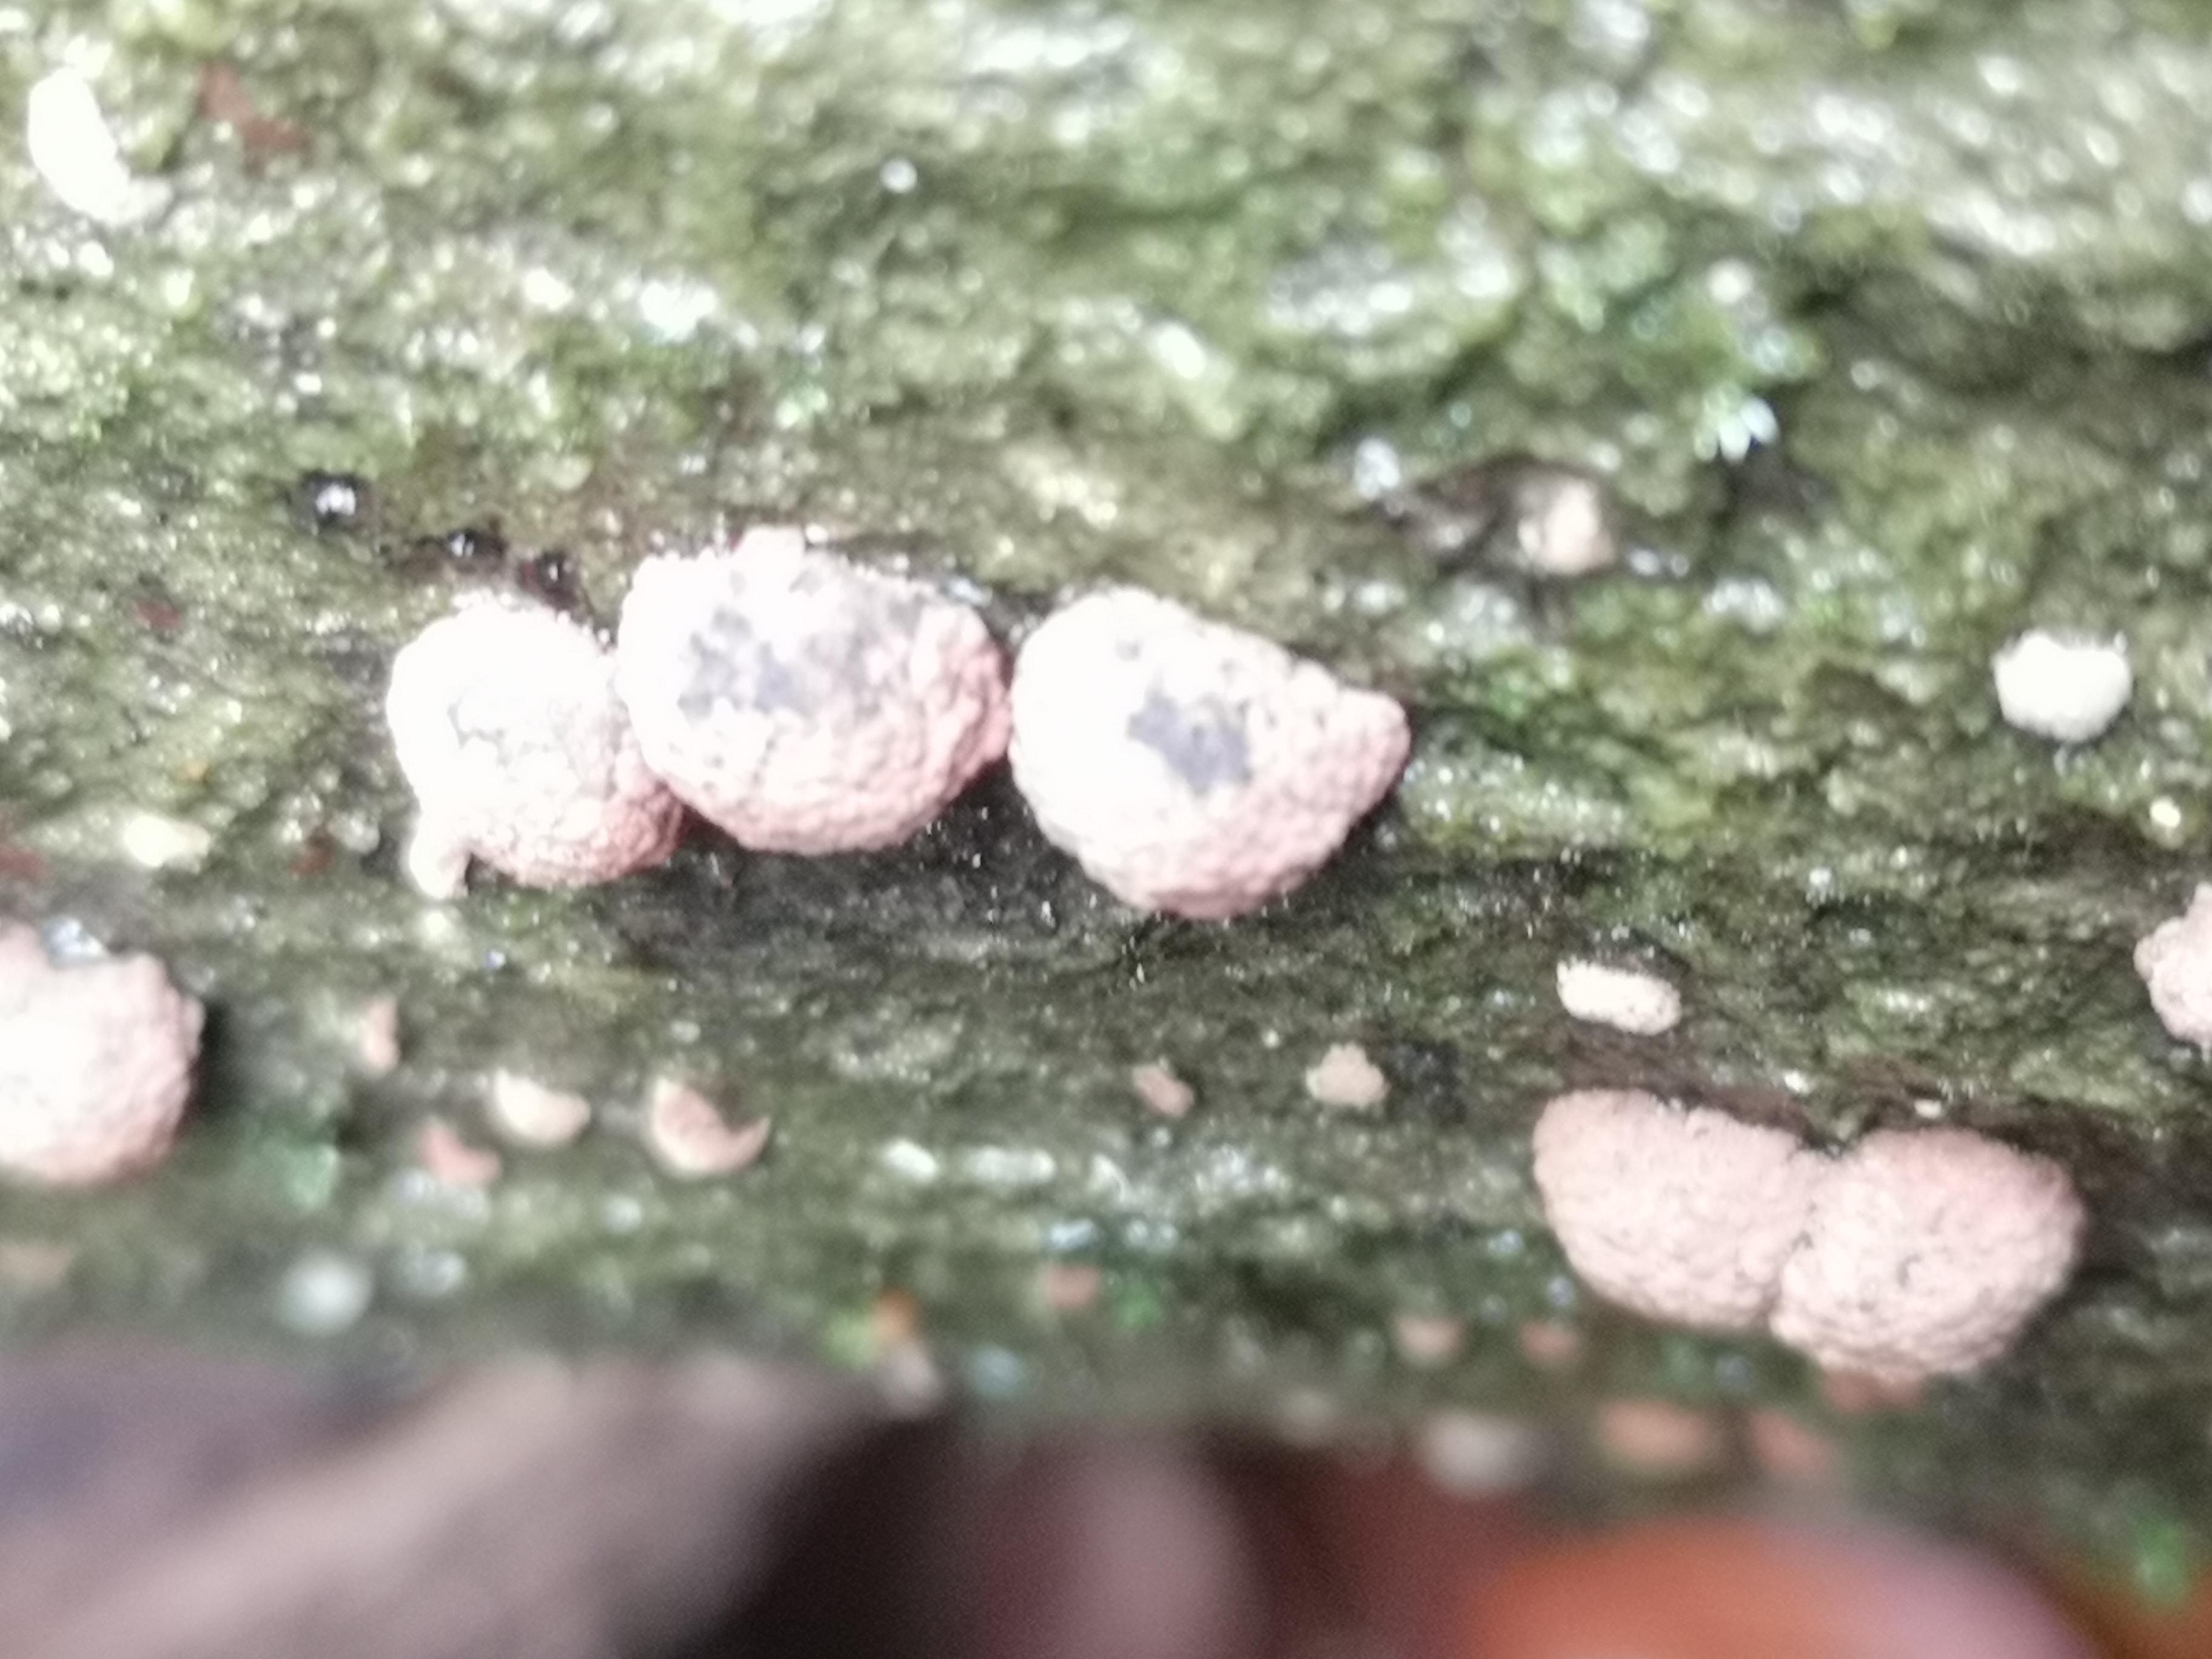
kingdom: Fungi
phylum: Ascomycota
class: Sordariomycetes
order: Xylariales
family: Hypoxylaceae
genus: Hypoxylon
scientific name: Hypoxylon fragiforme
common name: kuljordbær
